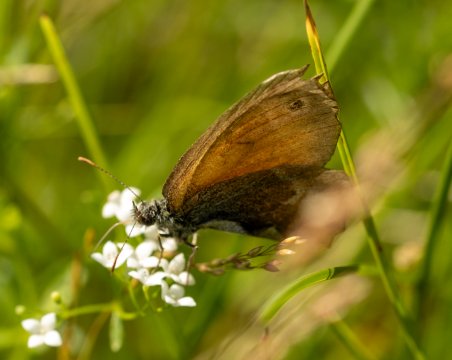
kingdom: Animalia
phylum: Arthropoda
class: Insecta
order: Lepidoptera
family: Nymphalidae
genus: Coenonympha
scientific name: Coenonympha tullia
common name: Large Heath
